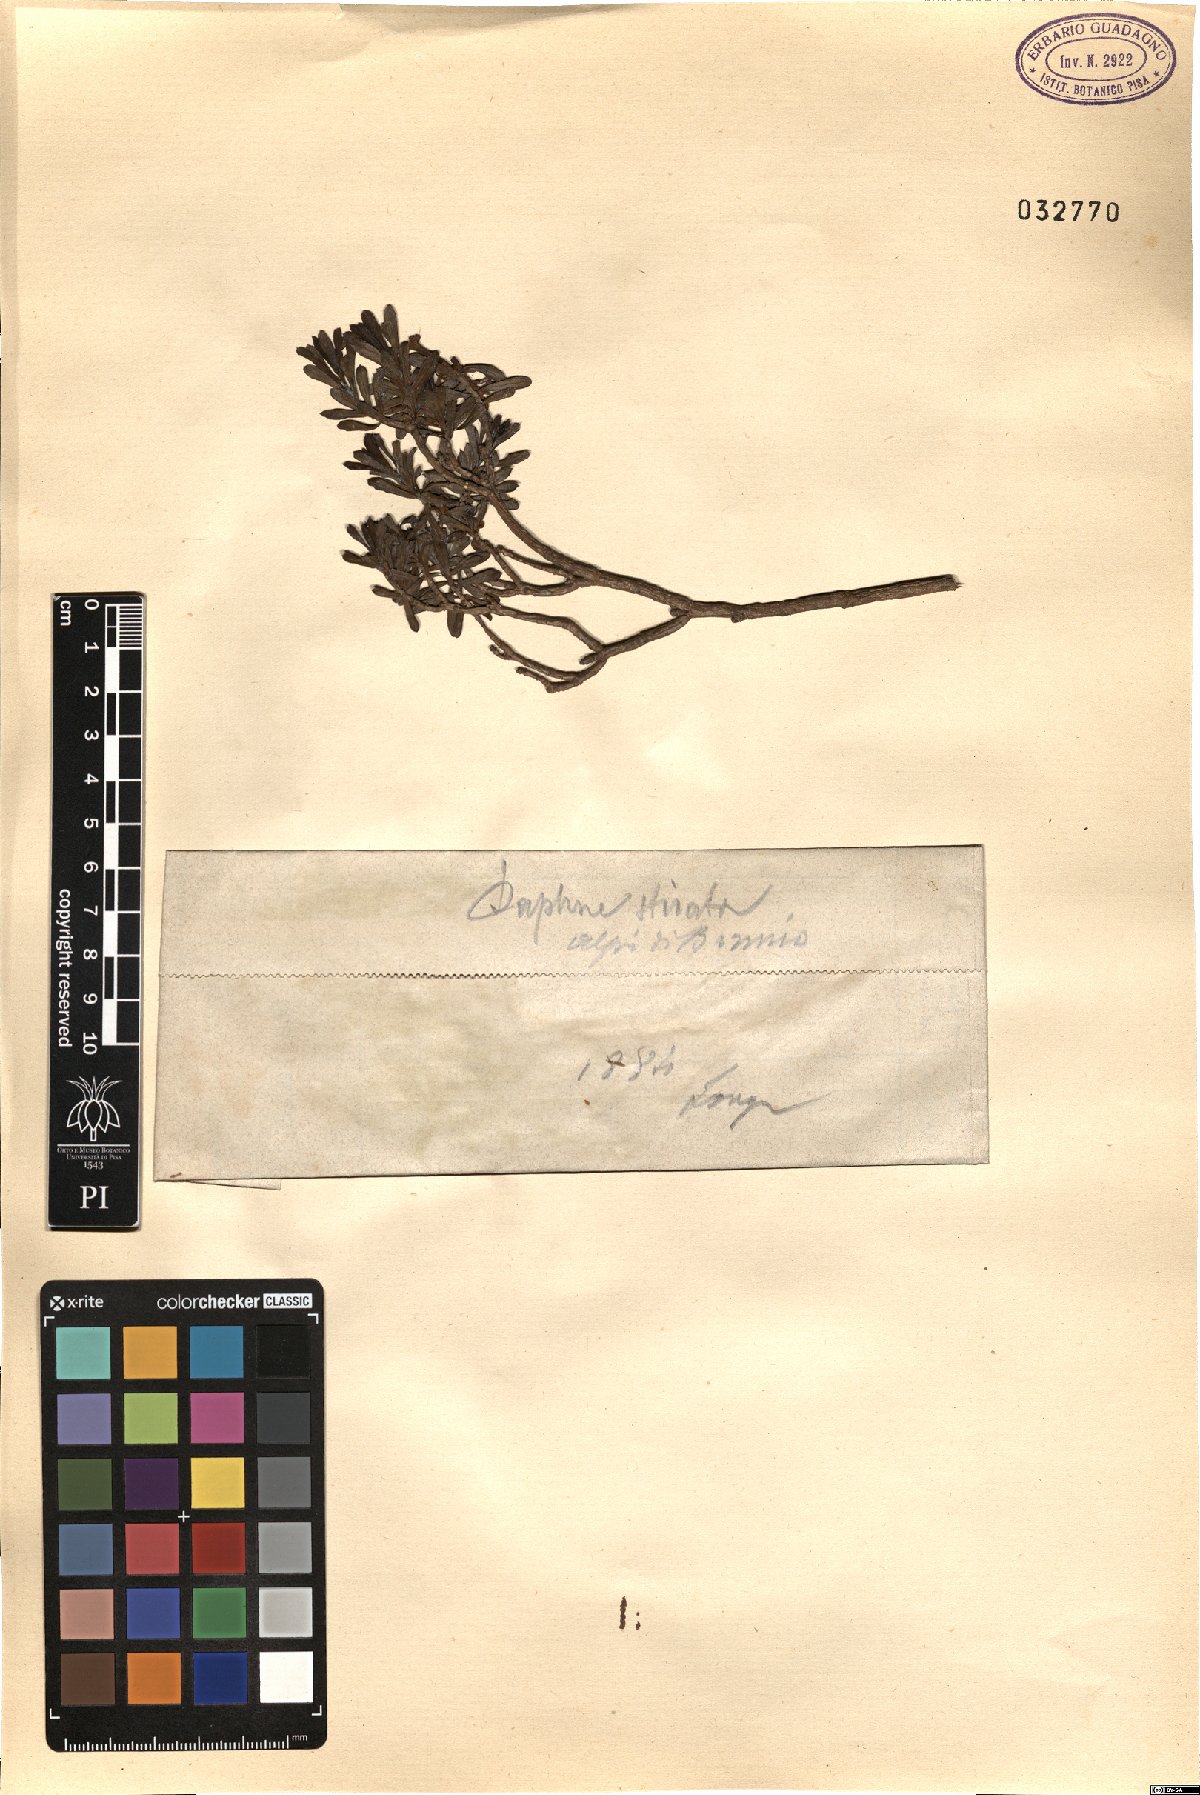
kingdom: Plantae
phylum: Tracheophyta
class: Magnoliopsida
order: Malvales
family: Thymelaeaceae
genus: Daphne
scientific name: Daphne striata
